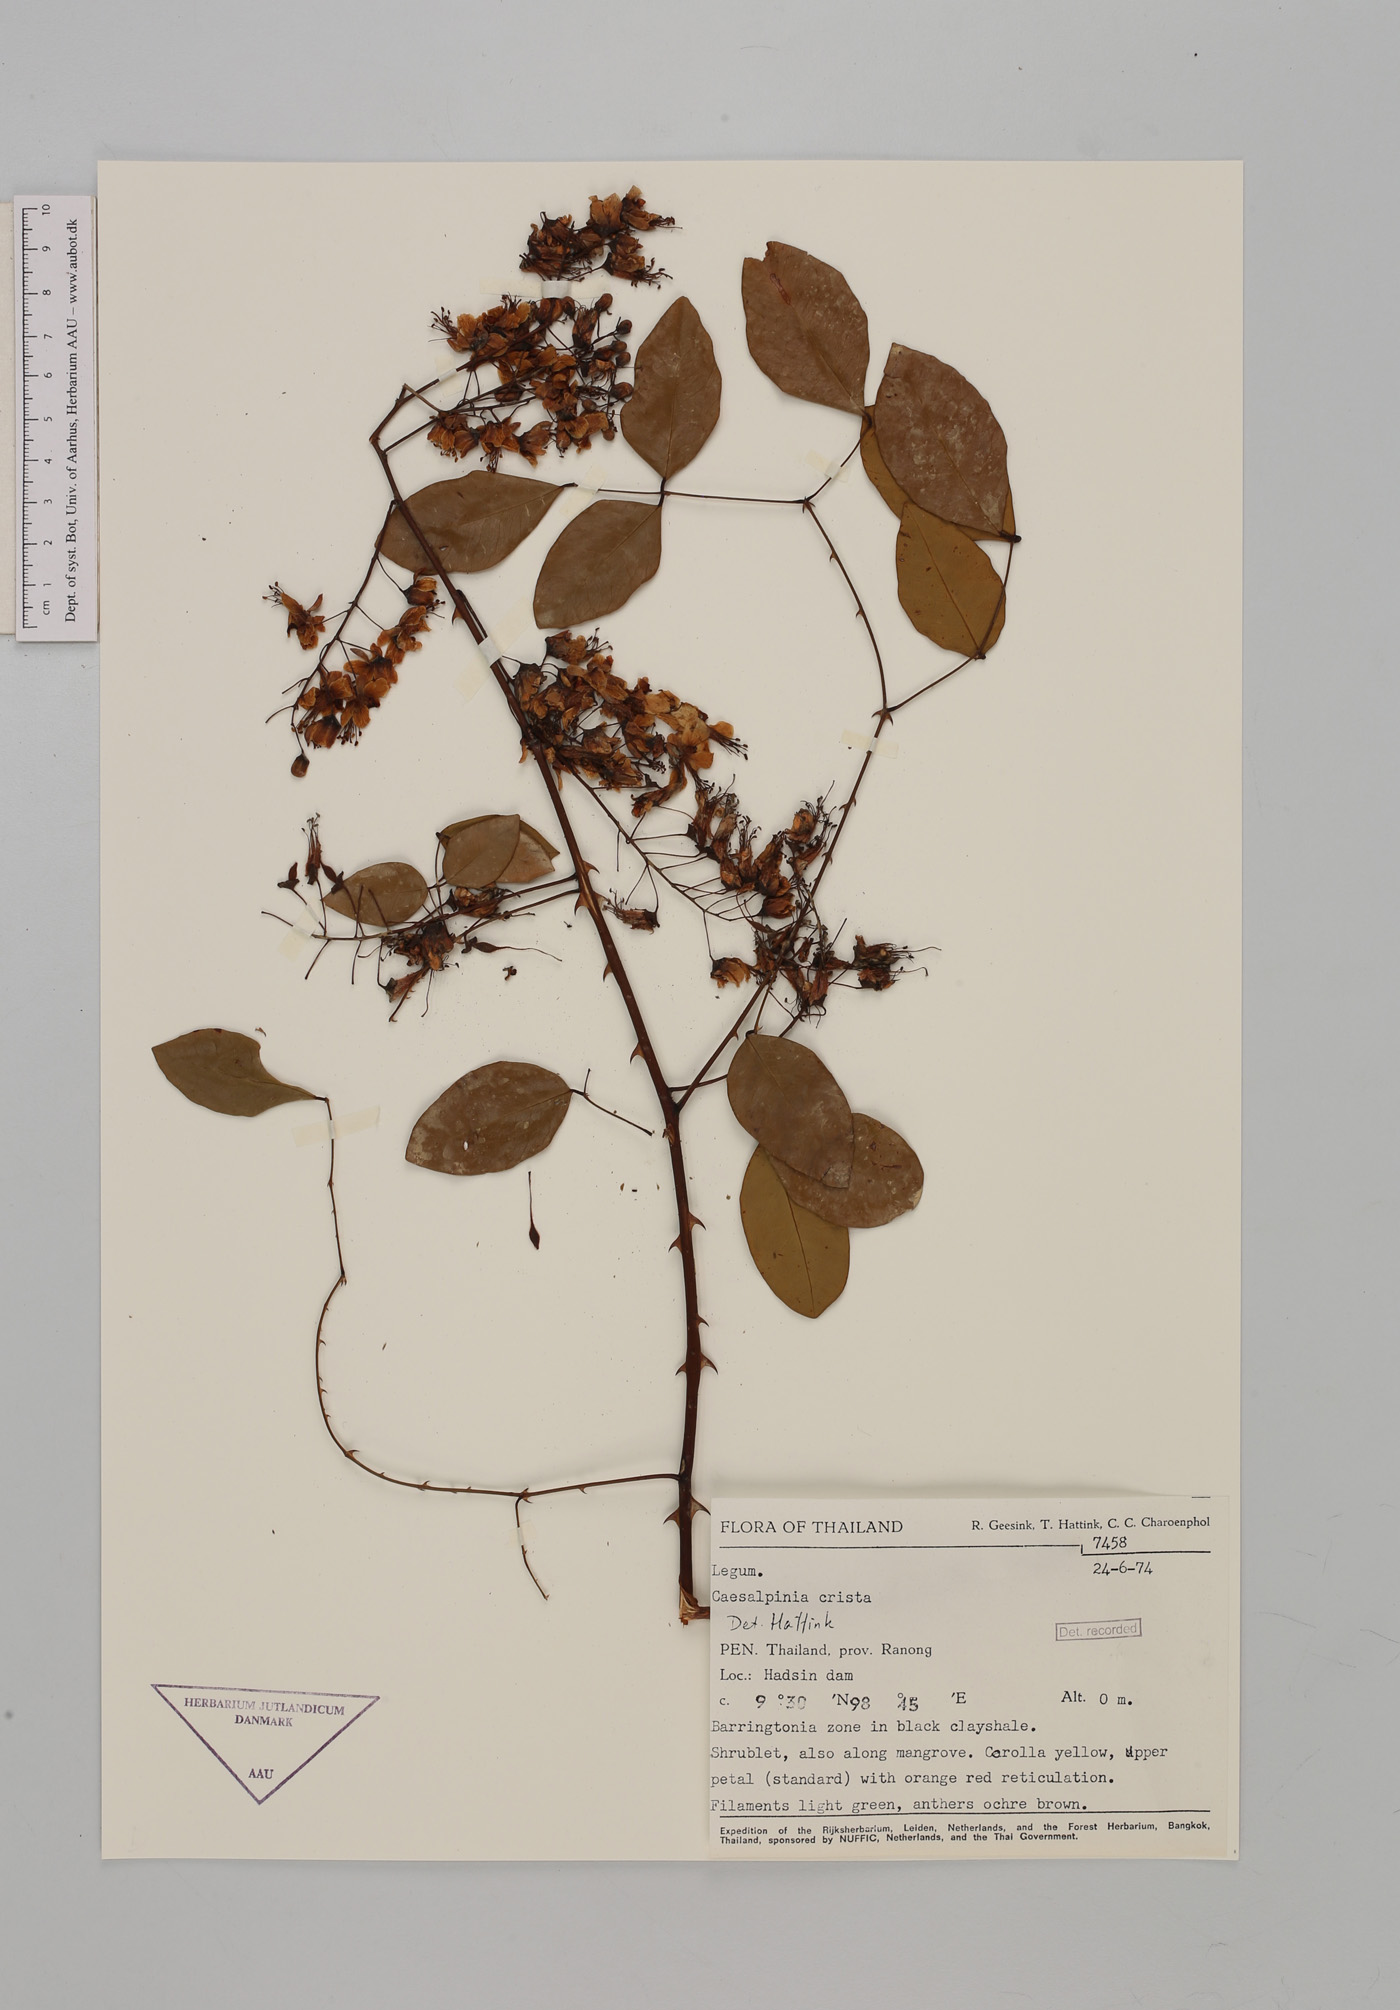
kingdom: Plantae
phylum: Tracheophyta
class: Magnoliopsida
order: Fabales
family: Fabaceae
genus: Caesalpinia
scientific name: Caesalpinia Ticanto crista
